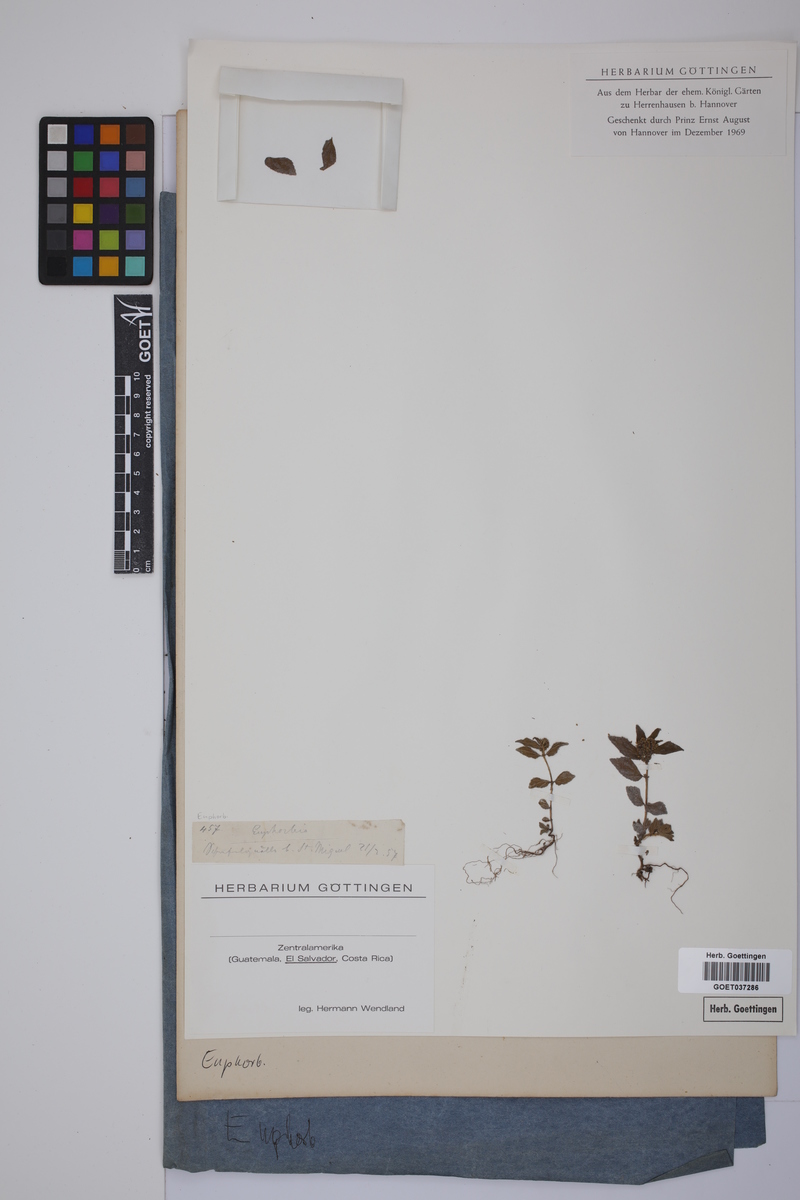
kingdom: Plantae
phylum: Tracheophyta
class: Magnoliopsida
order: Malpighiales
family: Euphorbiaceae
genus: Euphorbia
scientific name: Euphorbia
